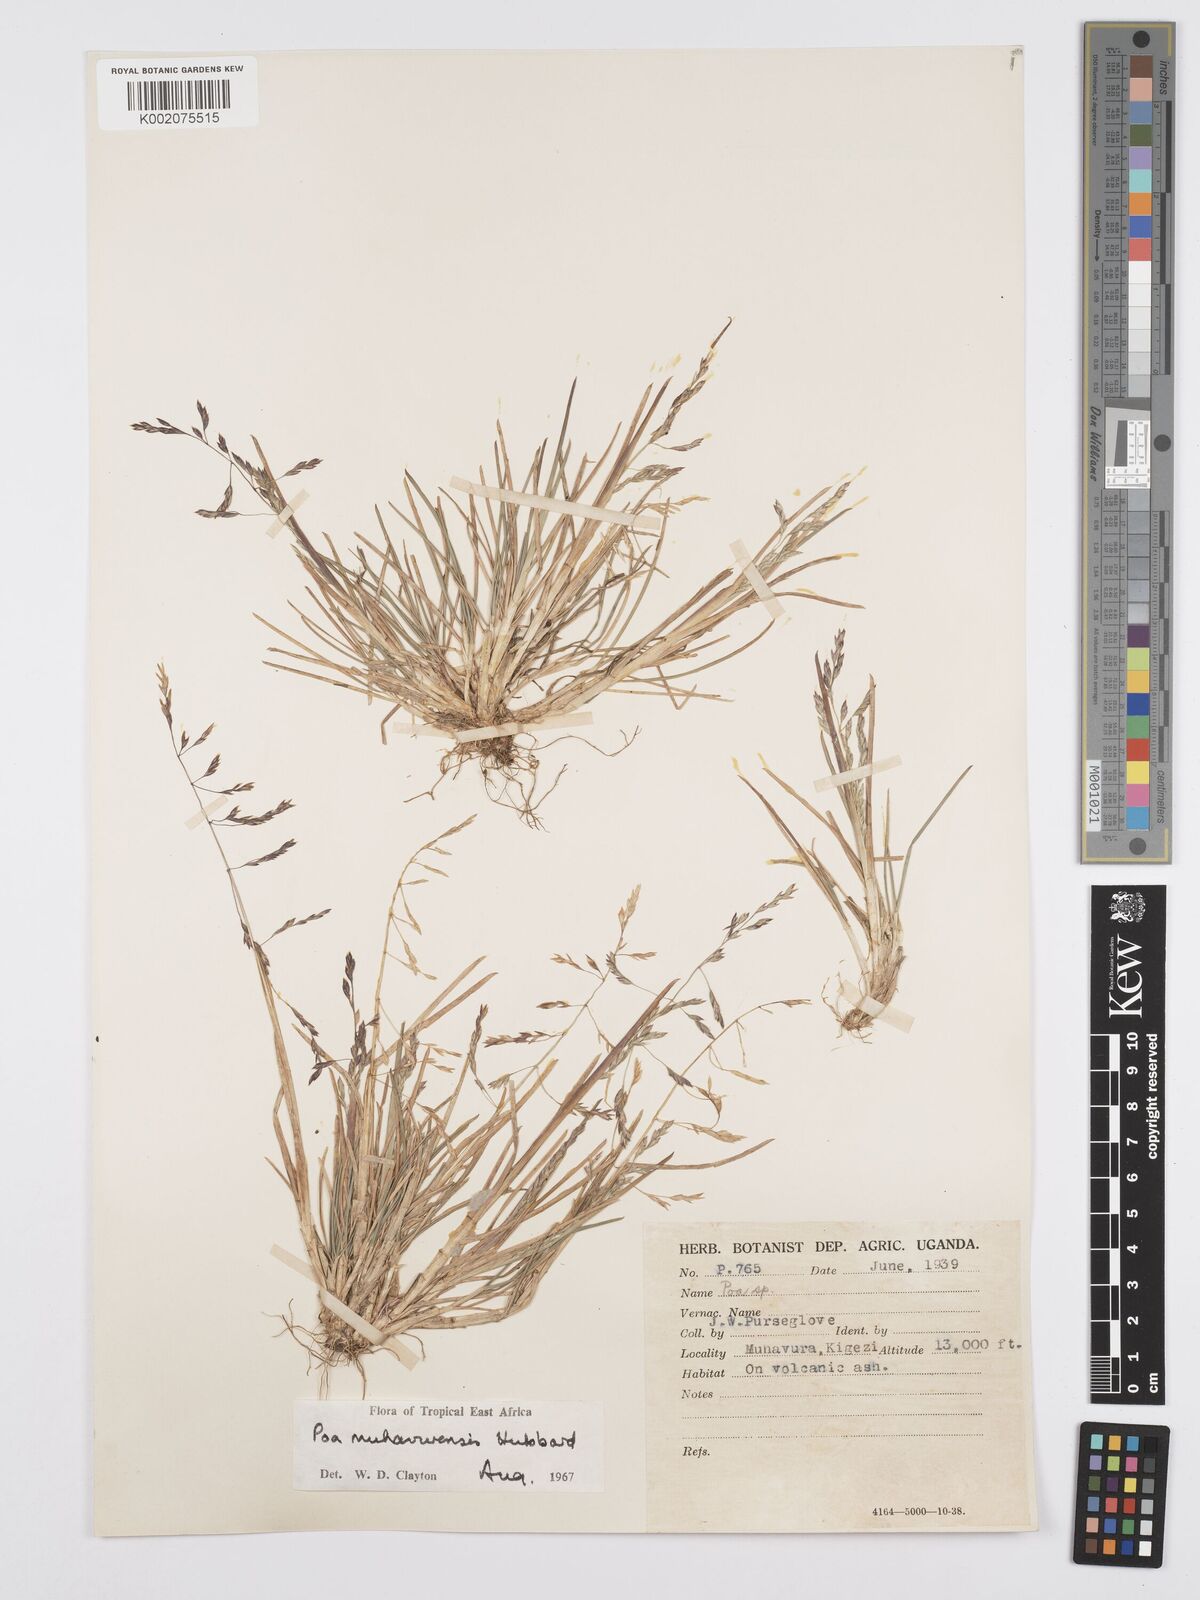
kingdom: Plantae
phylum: Tracheophyta
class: Liliopsida
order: Poales
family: Poaceae
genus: Poa
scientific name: Poa schimperiana
